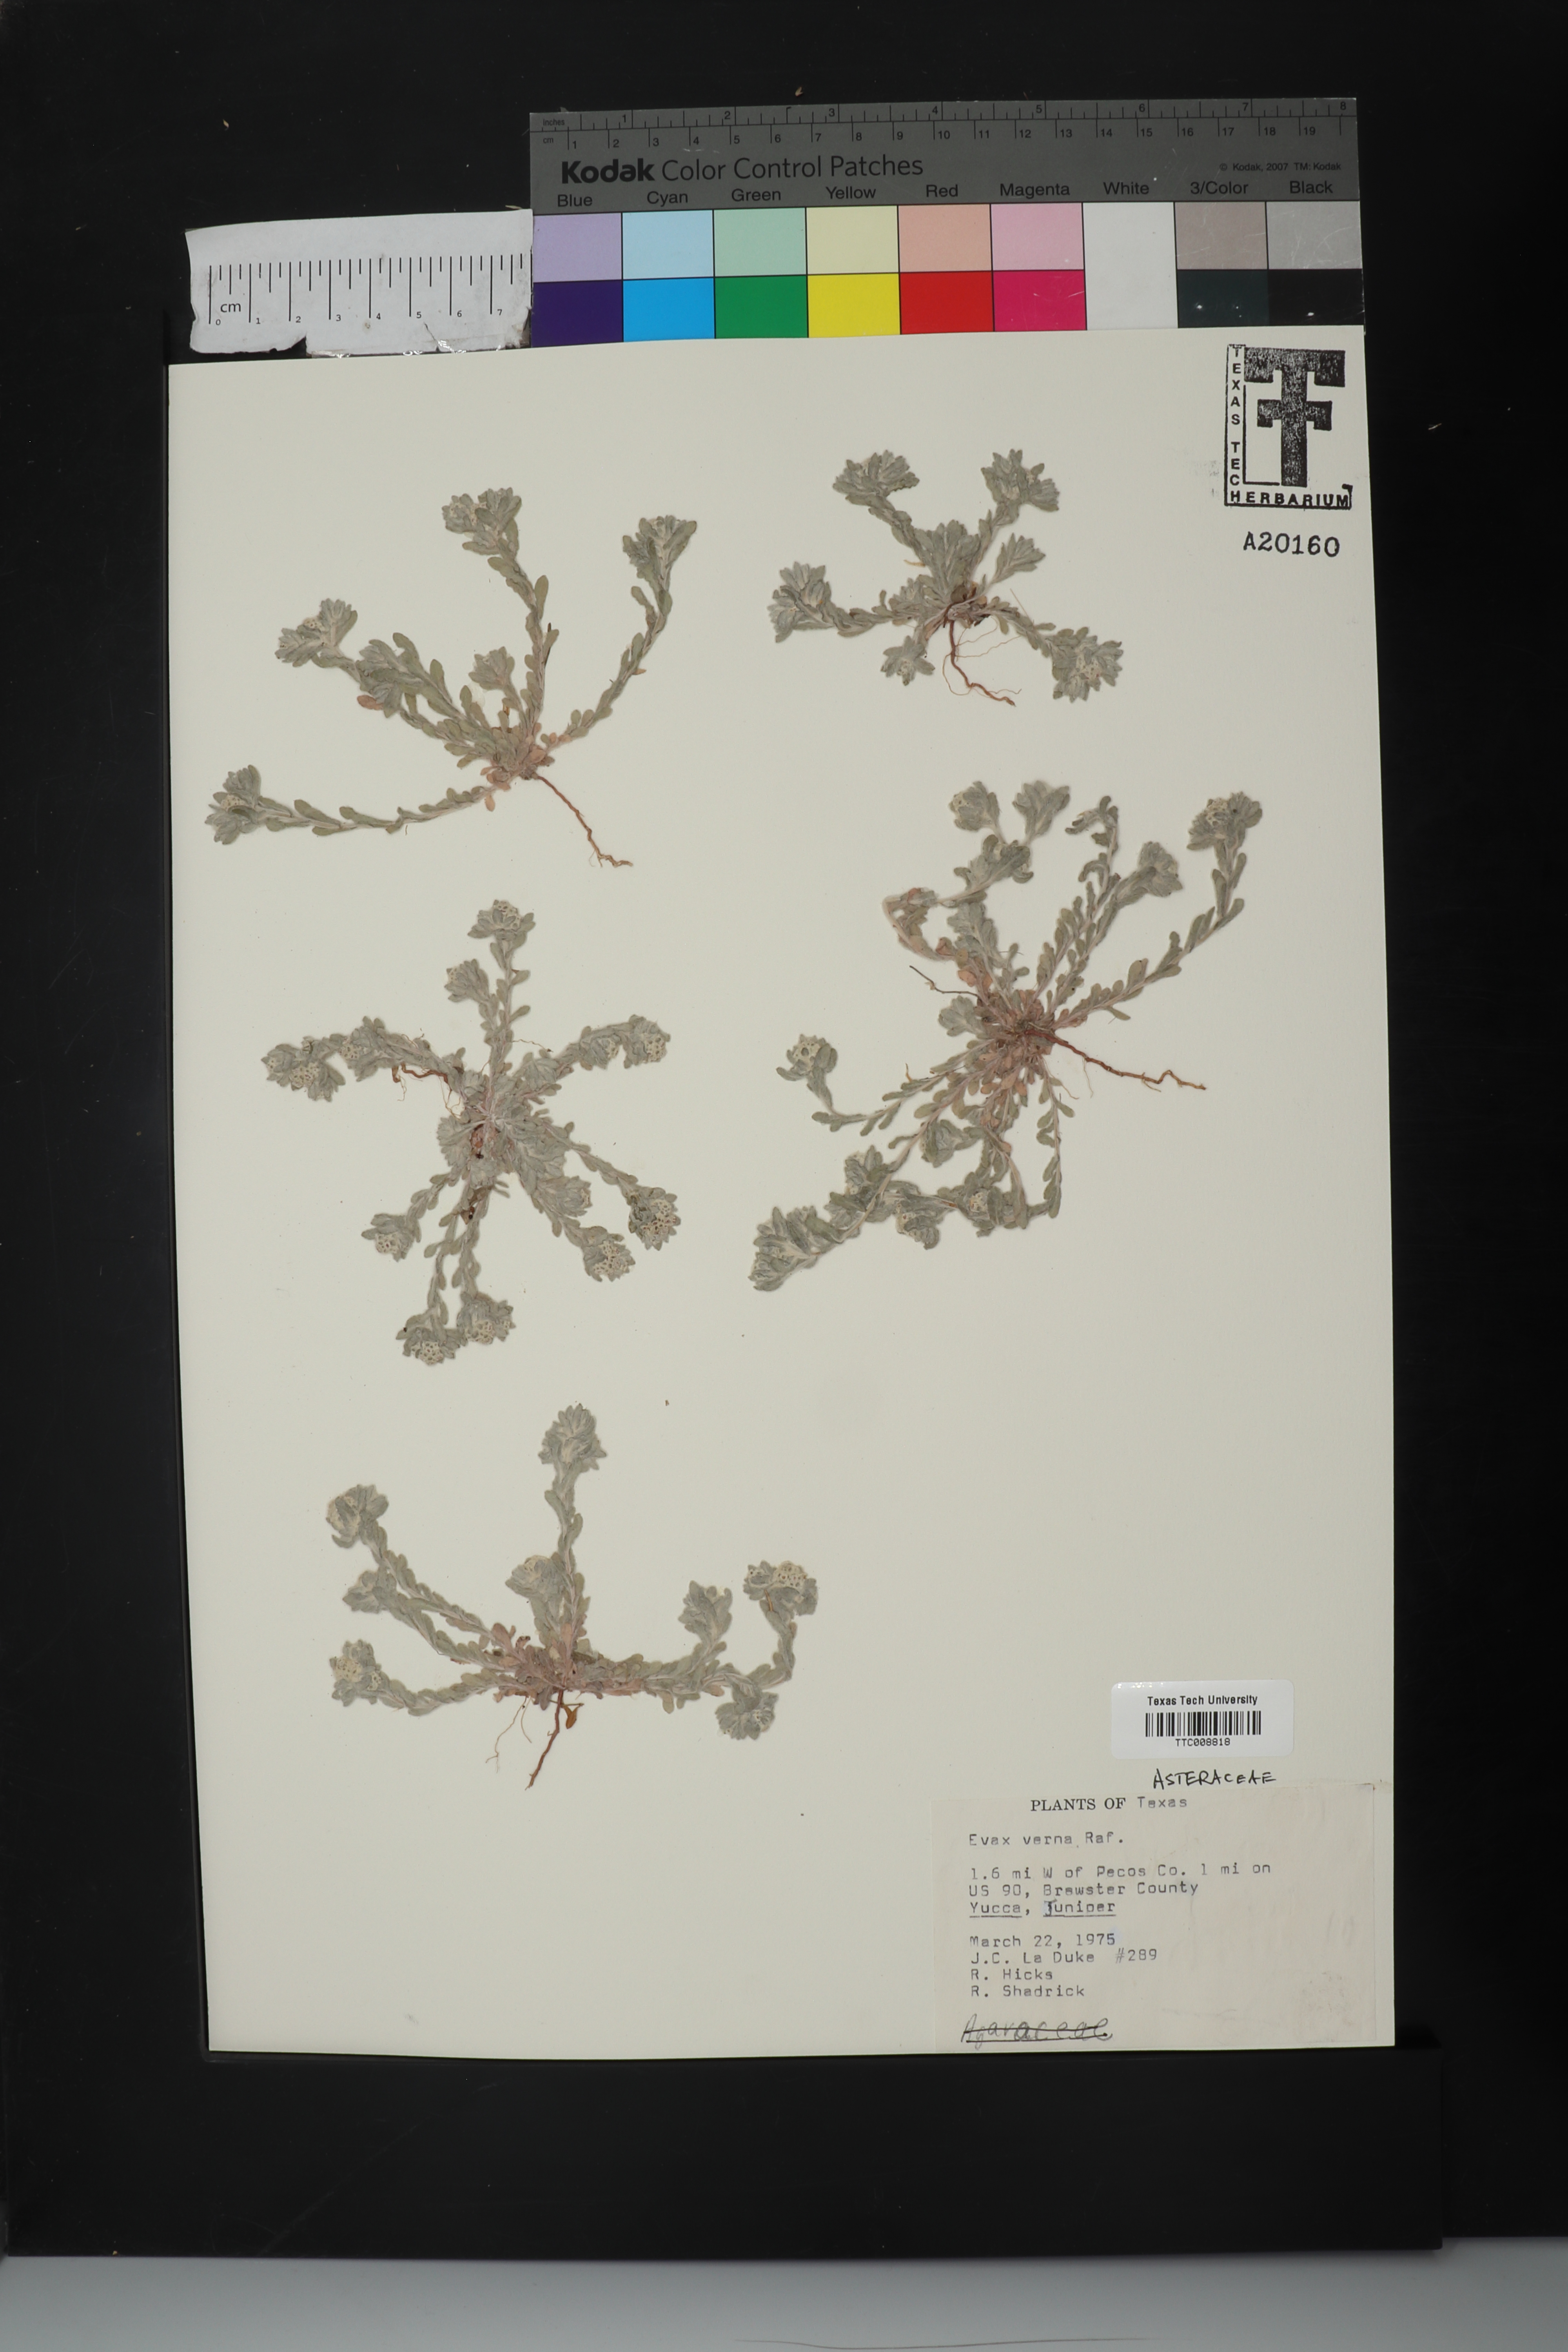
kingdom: Plantae
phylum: Tracheophyta
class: Magnoliopsida
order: Asterales
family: Asteraceae
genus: Diaperia
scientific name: Diaperia verna
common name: Many-stem rabbit-tobacco
